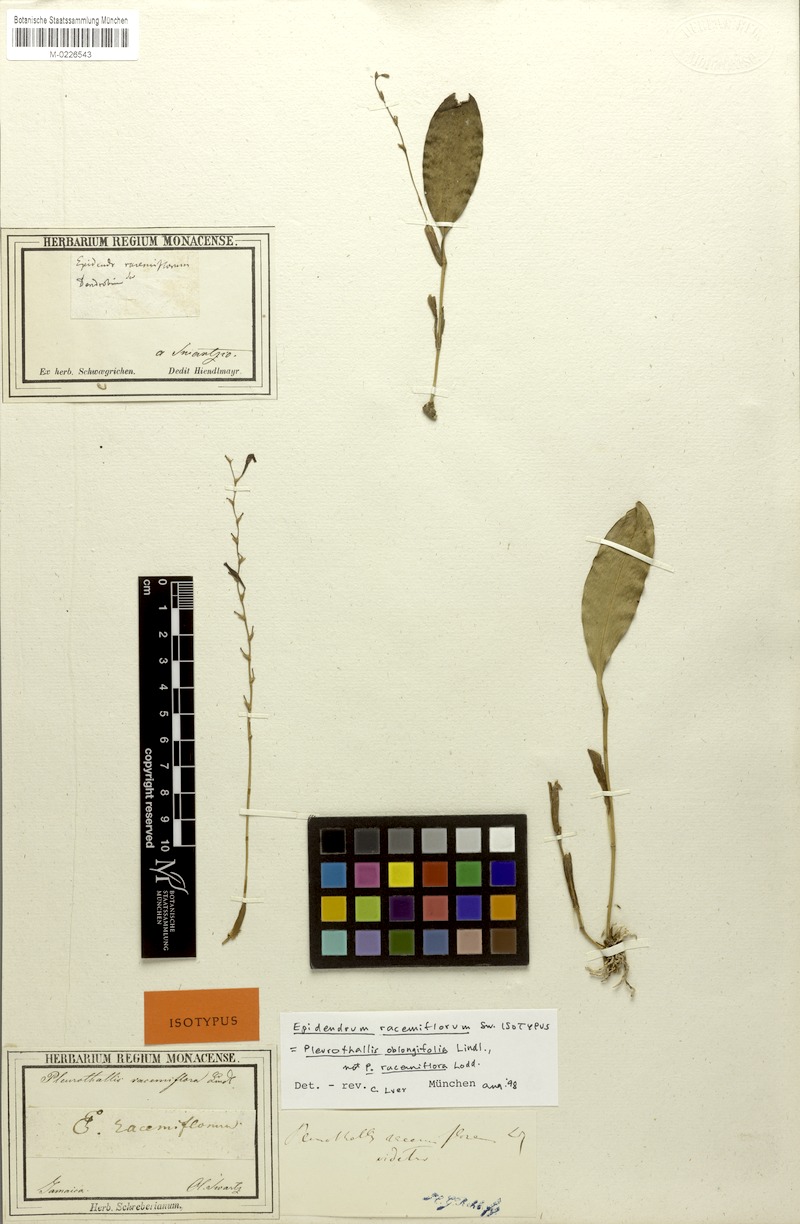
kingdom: Plantae
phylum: Tracheophyta
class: Liliopsida
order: Asparagales
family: Orchidaceae
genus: Stelis
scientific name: Stelis multirostris
